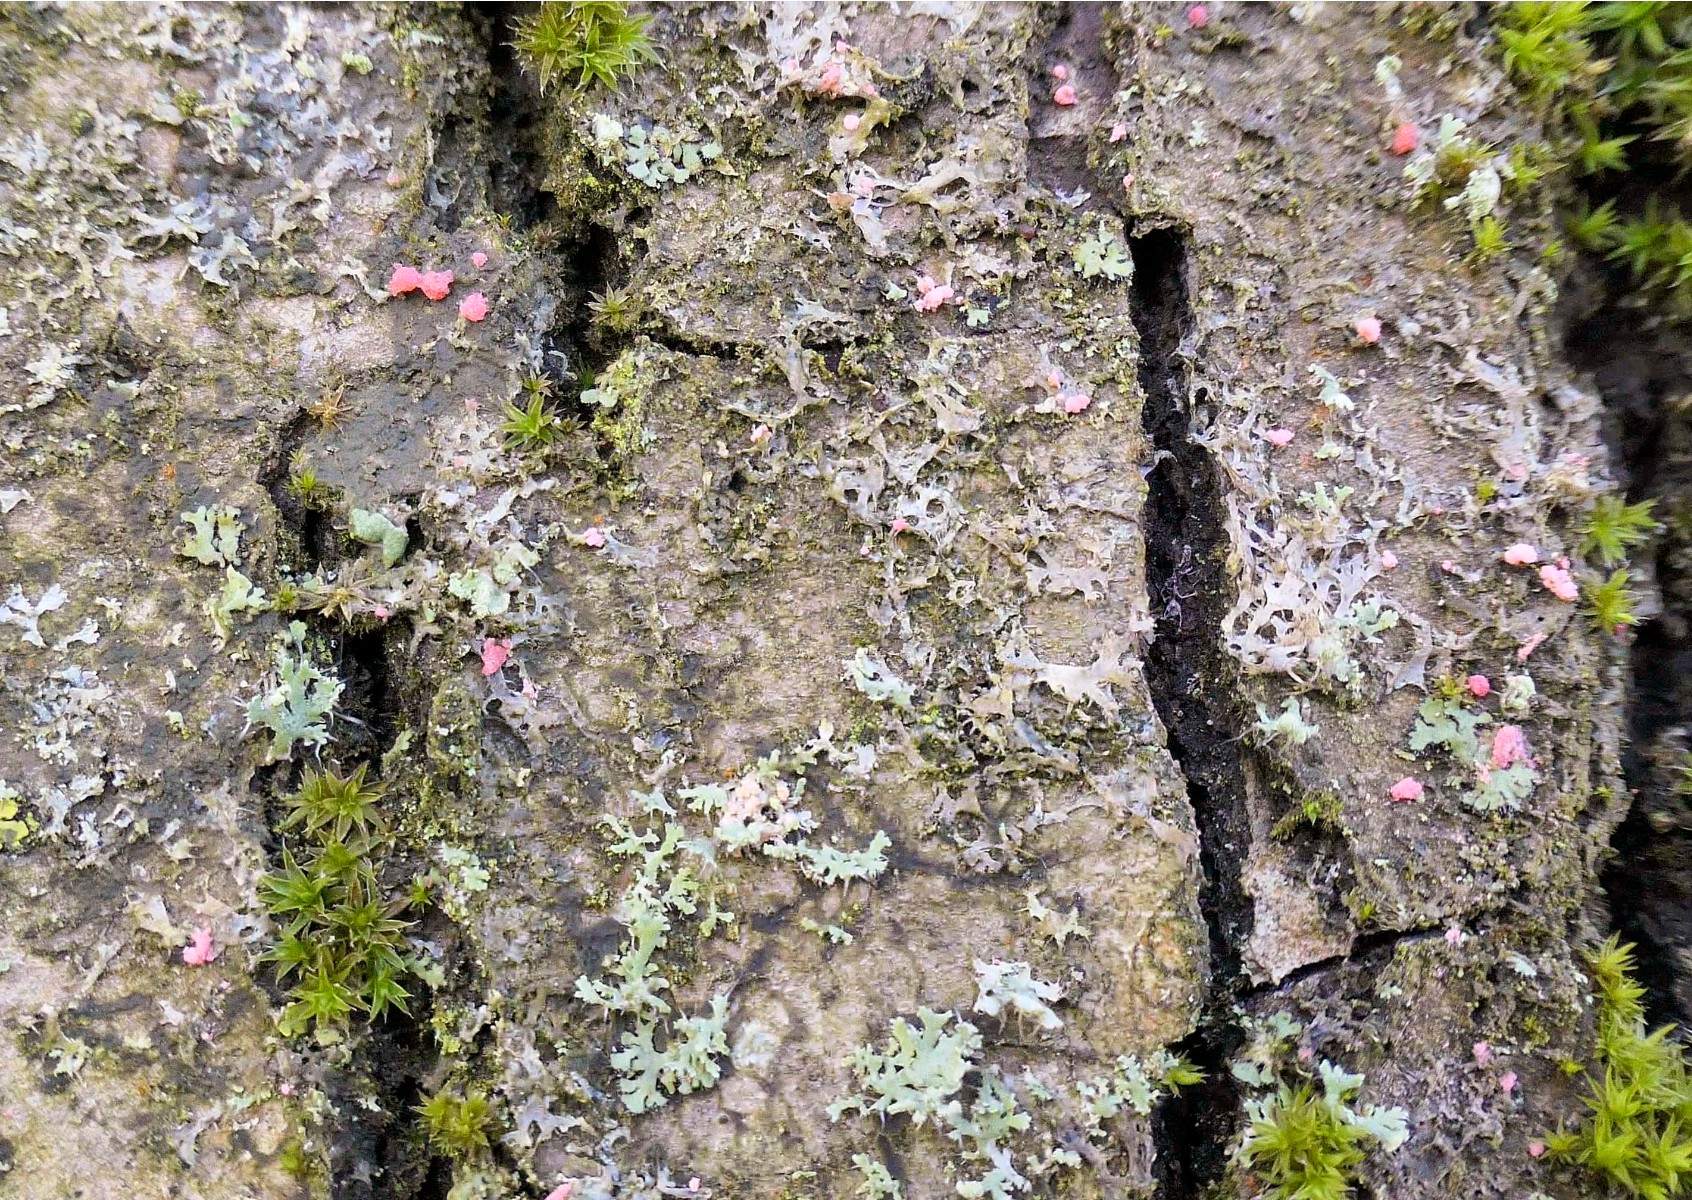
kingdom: Fungi
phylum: Ascomycota
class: Sordariomycetes
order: Hypocreales
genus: Illosporiopsis
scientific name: Illosporiopsis christiansenii
